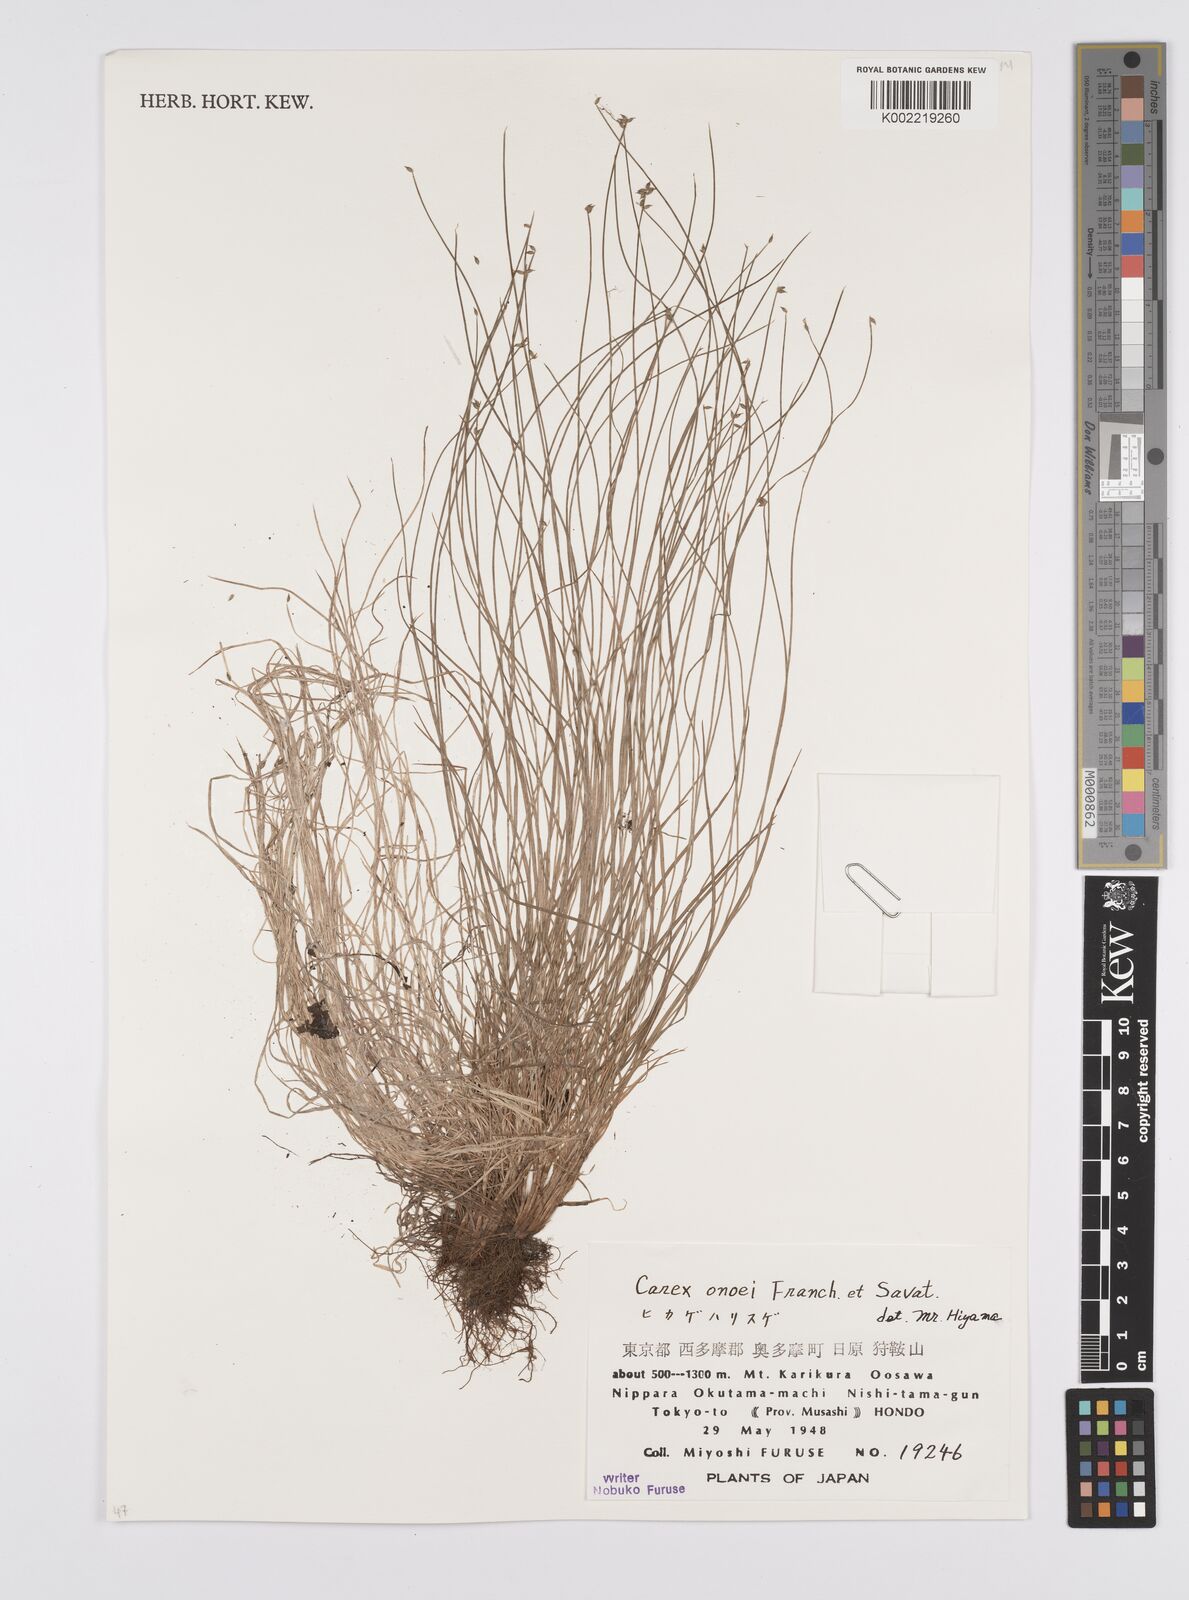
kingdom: Plantae
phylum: Tracheophyta
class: Liliopsida
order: Poales
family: Cyperaceae
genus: Carex
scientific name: Carex onoei
